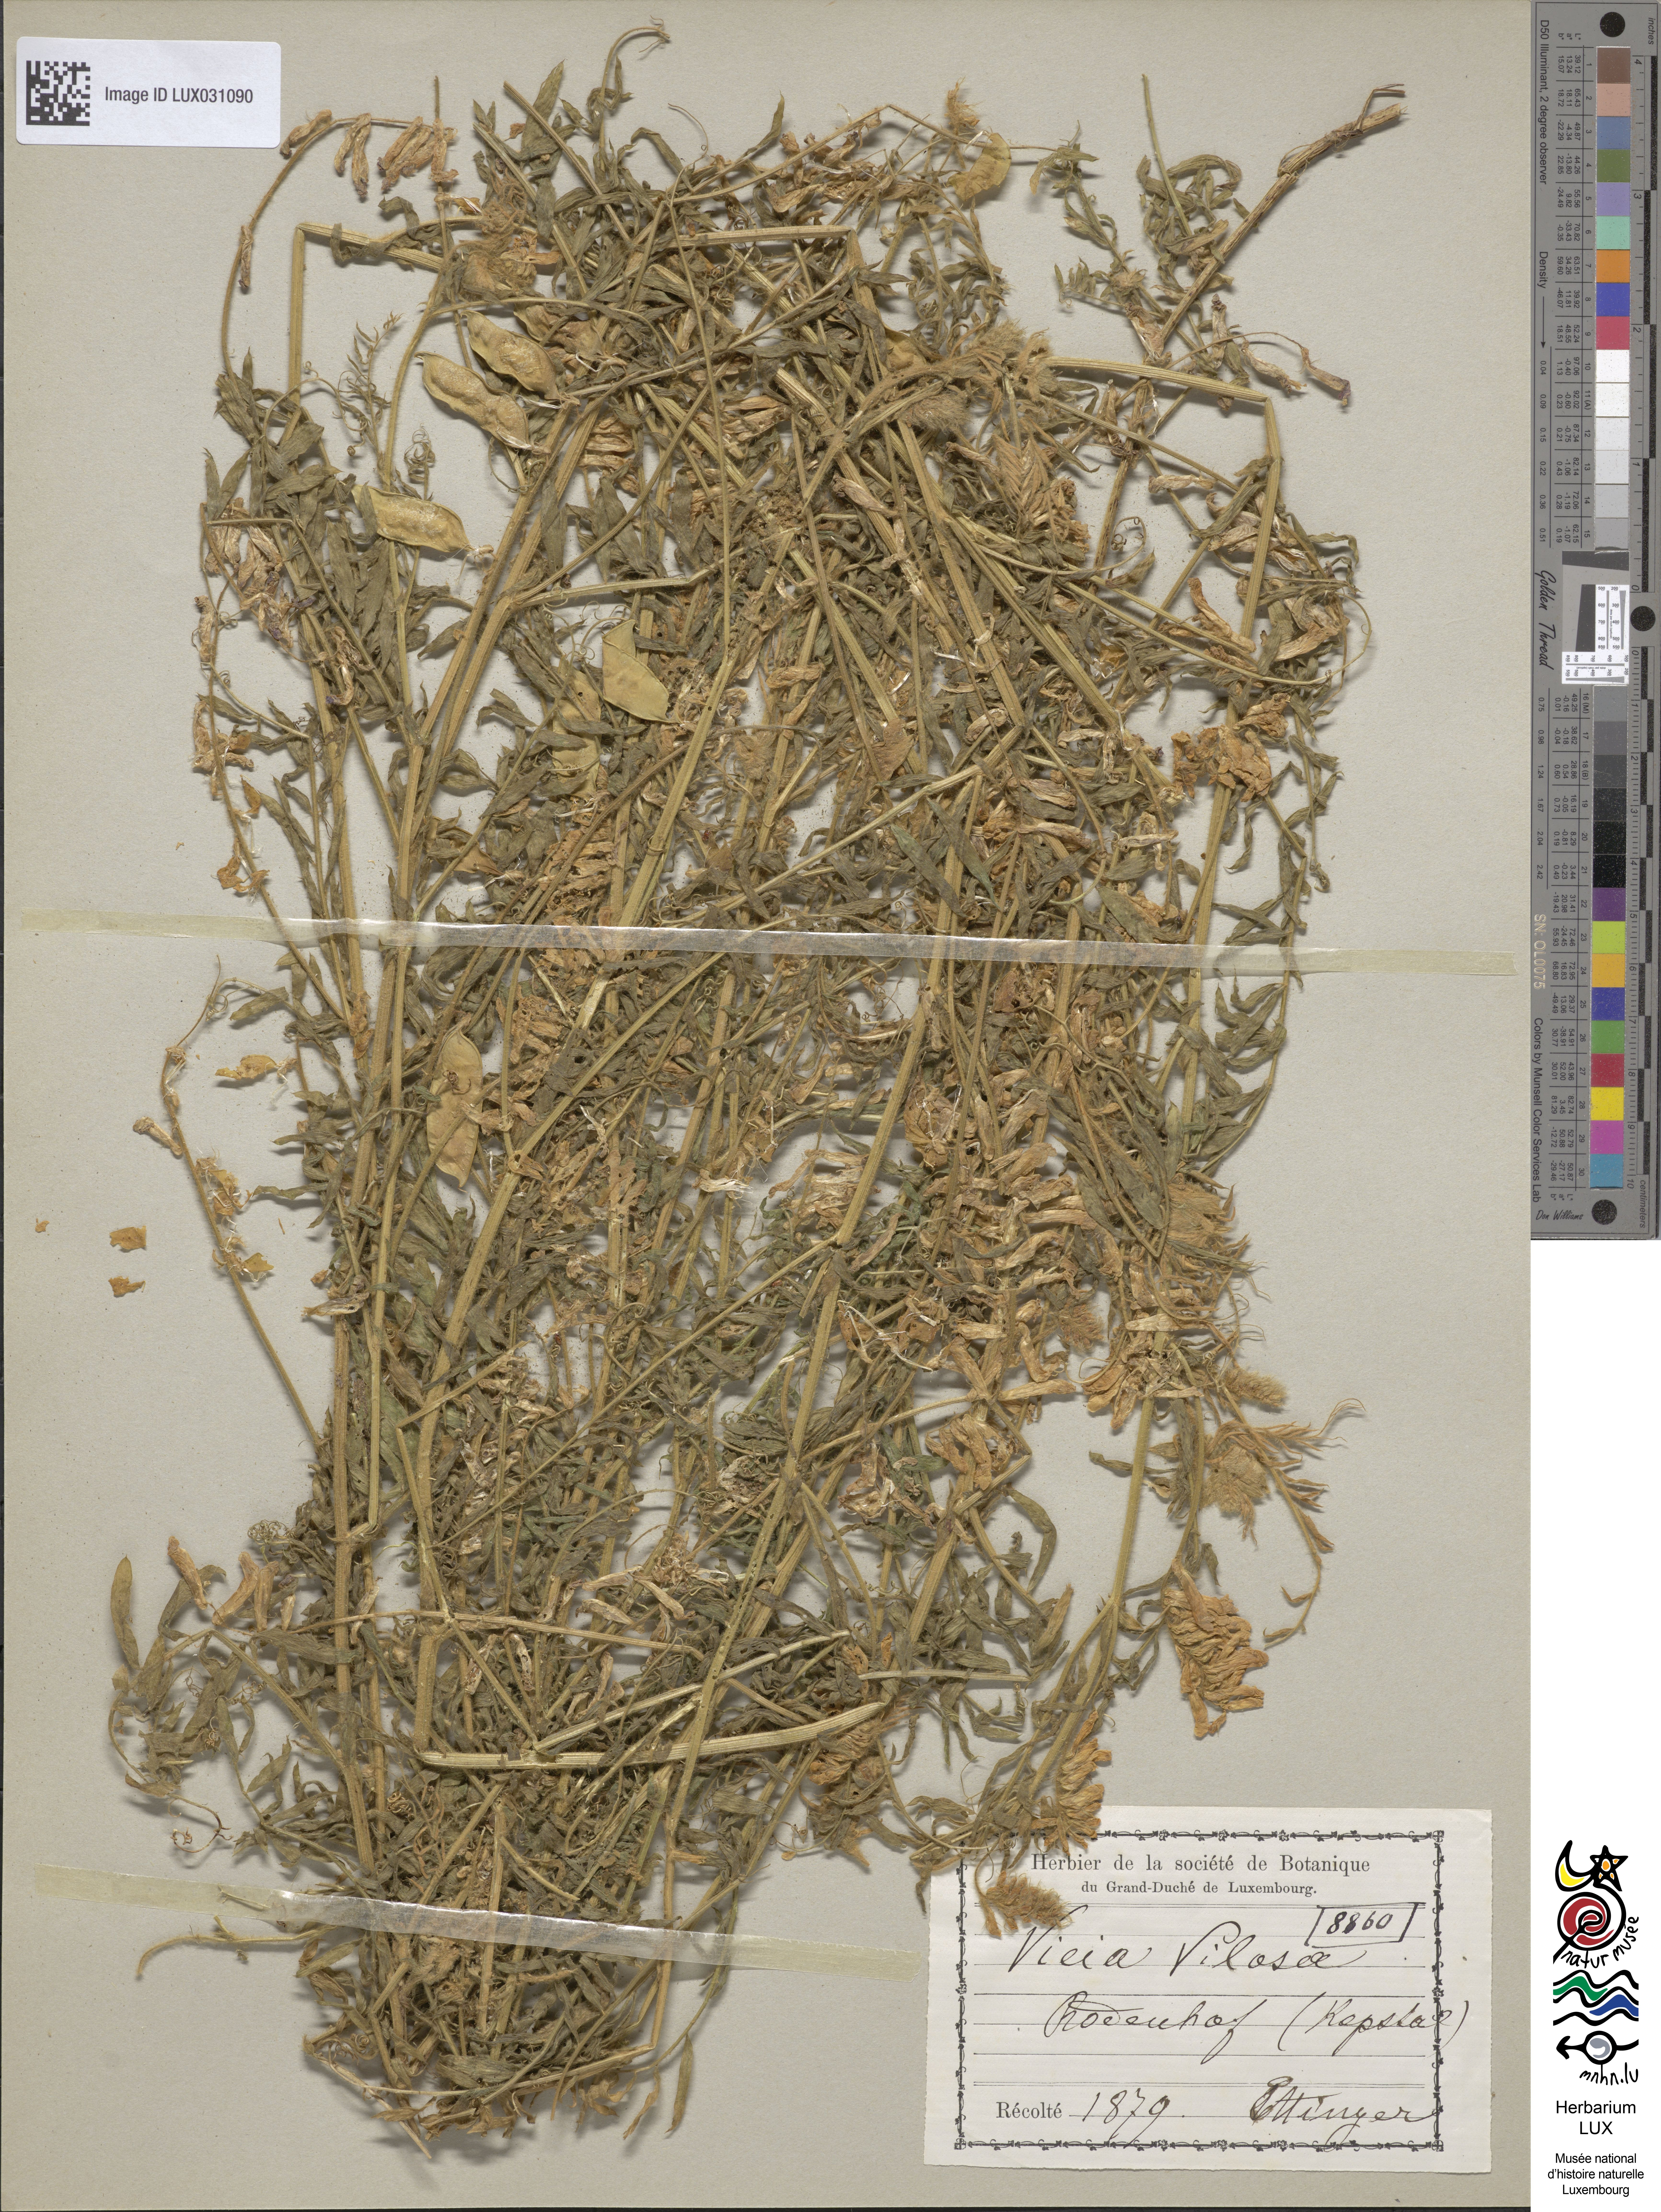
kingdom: Plantae
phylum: Tracheophyta
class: Magnoliopsida
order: Fabales
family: Fabaceae
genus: Vicia
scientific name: Vicia villosa
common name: Fodder vetch
